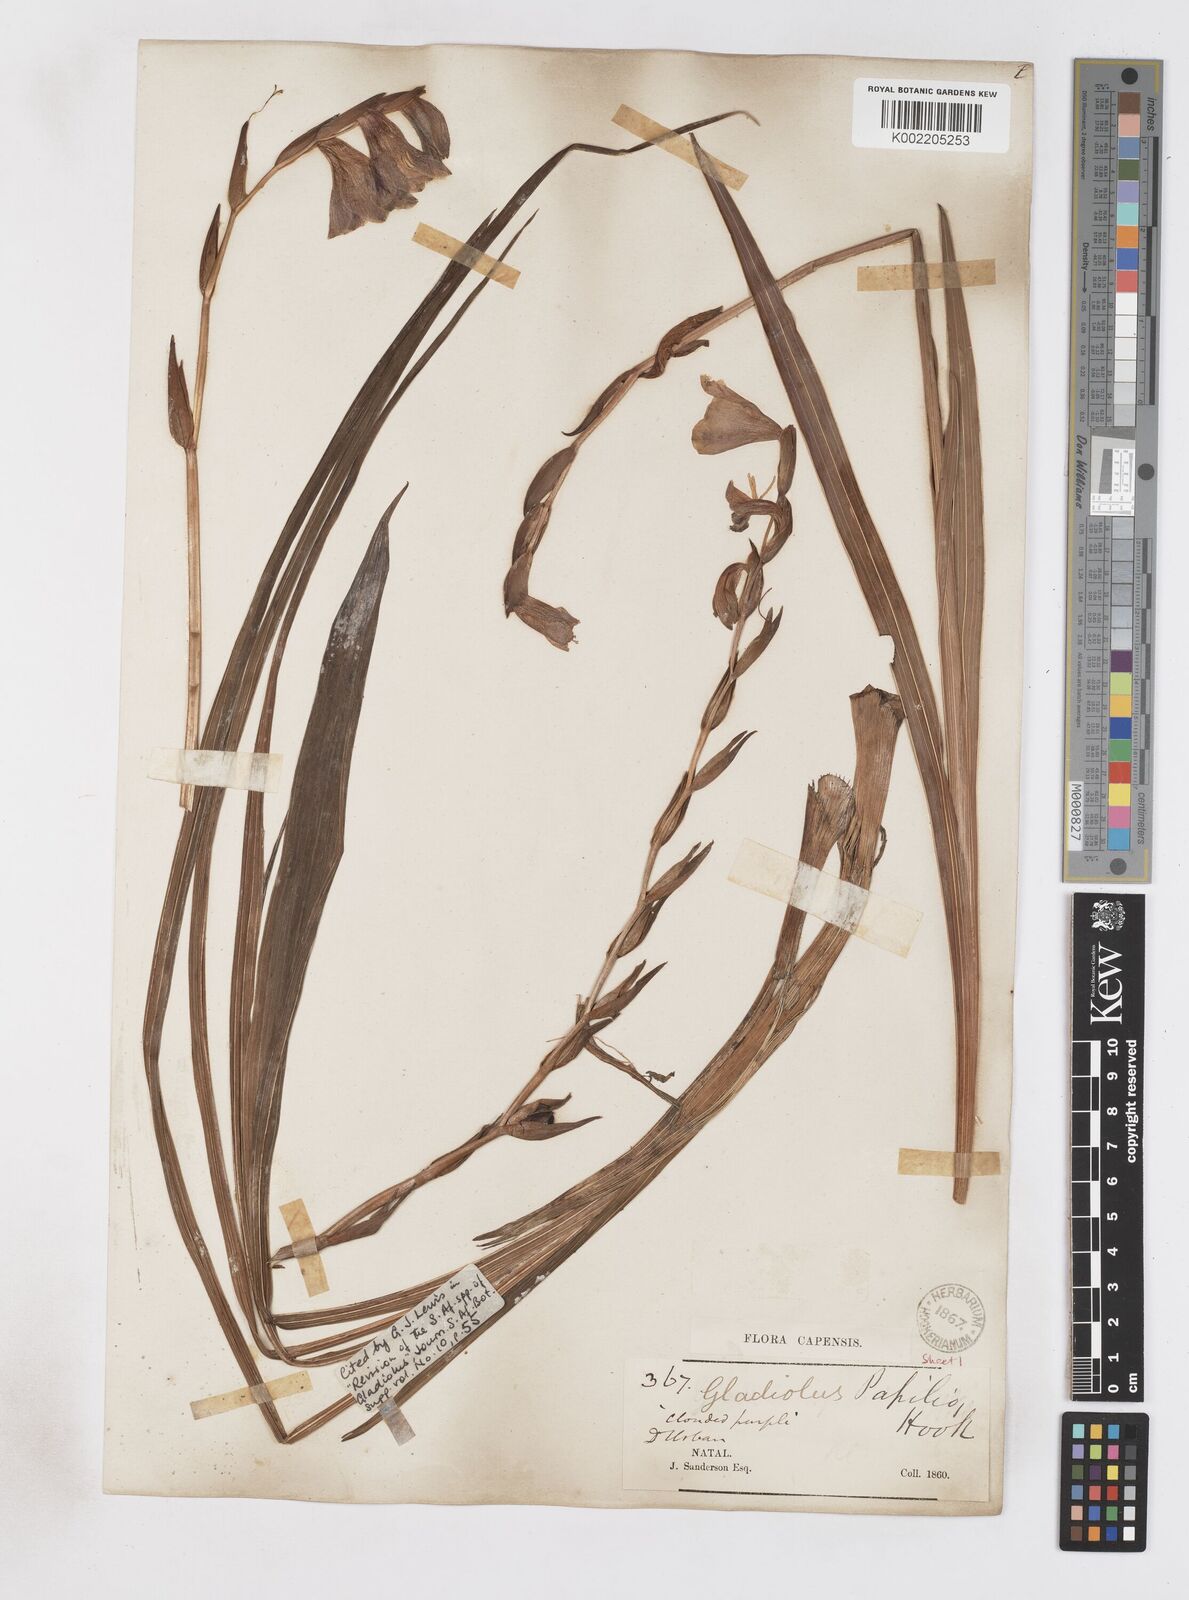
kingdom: Plantae
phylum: Tracheophyta
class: Liliopsida
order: Asparagales
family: Iridaceae
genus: Gladiolus
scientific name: Gladiolus papilio
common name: Goldblotch gladiolus
